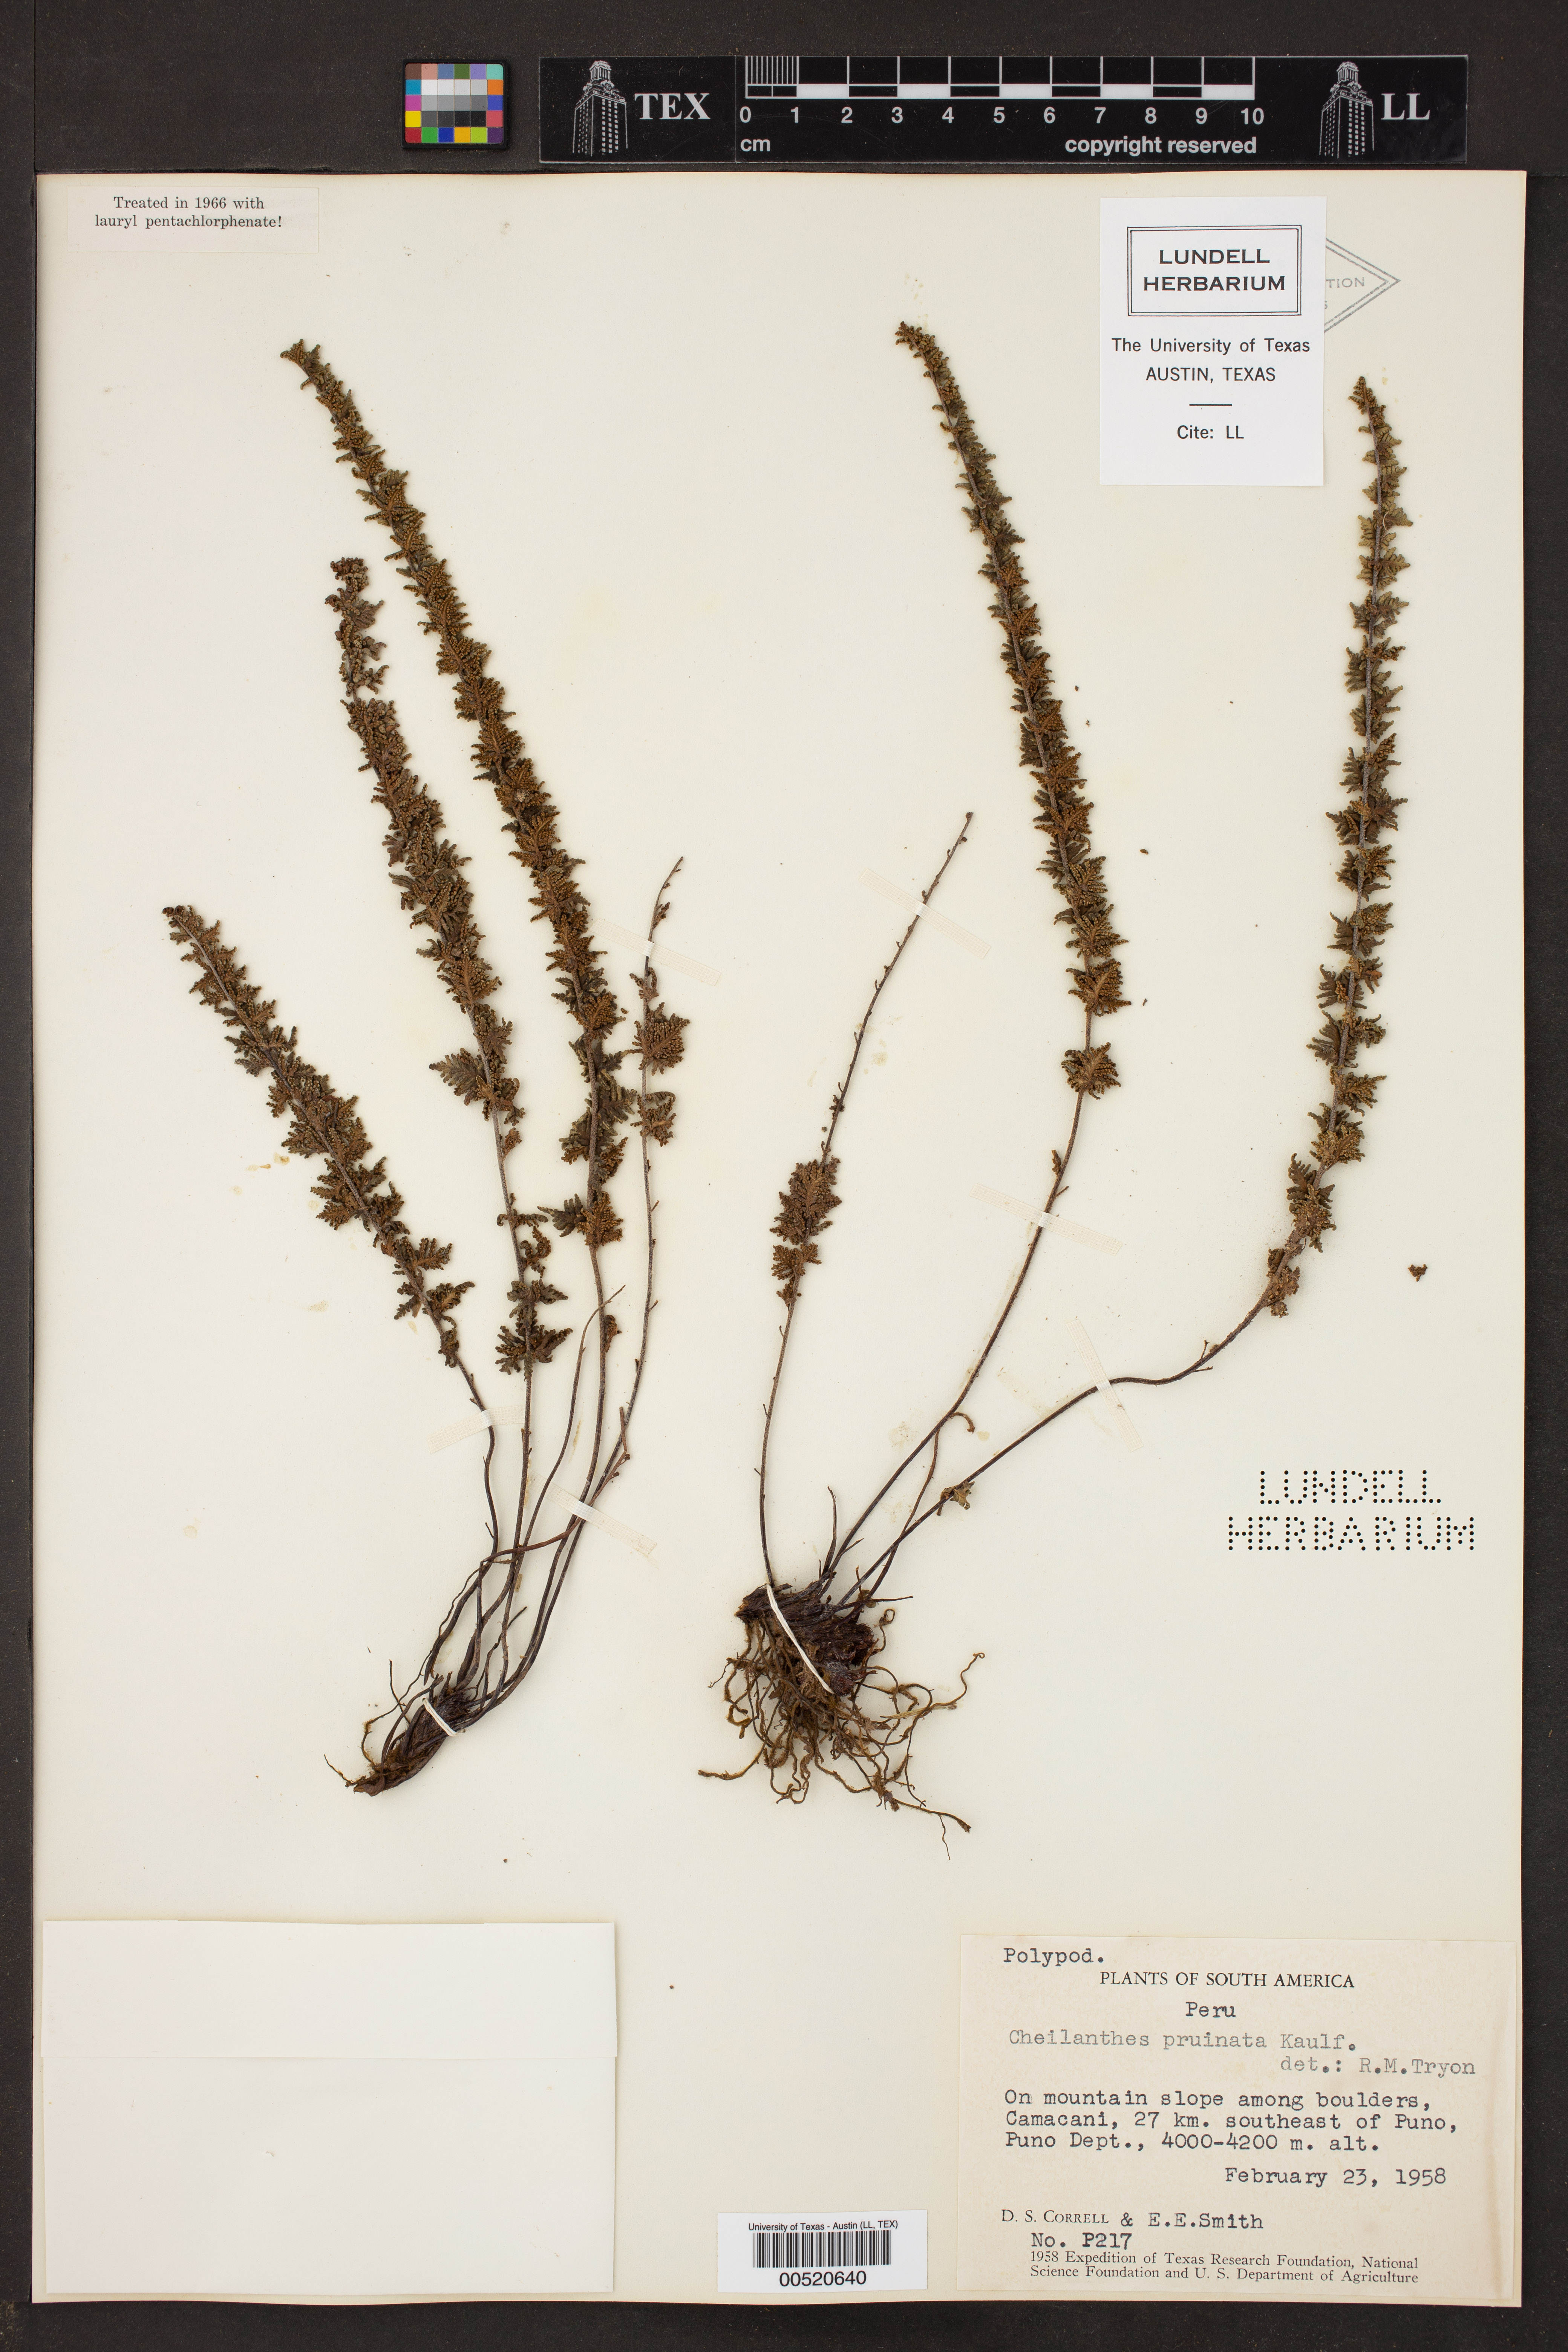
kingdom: Plantae
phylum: Tracheophyta
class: Polypodiopsida
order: Polypodiales
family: Pteridaceae
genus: Cheilanthes
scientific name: Cheilanthes pruinata
